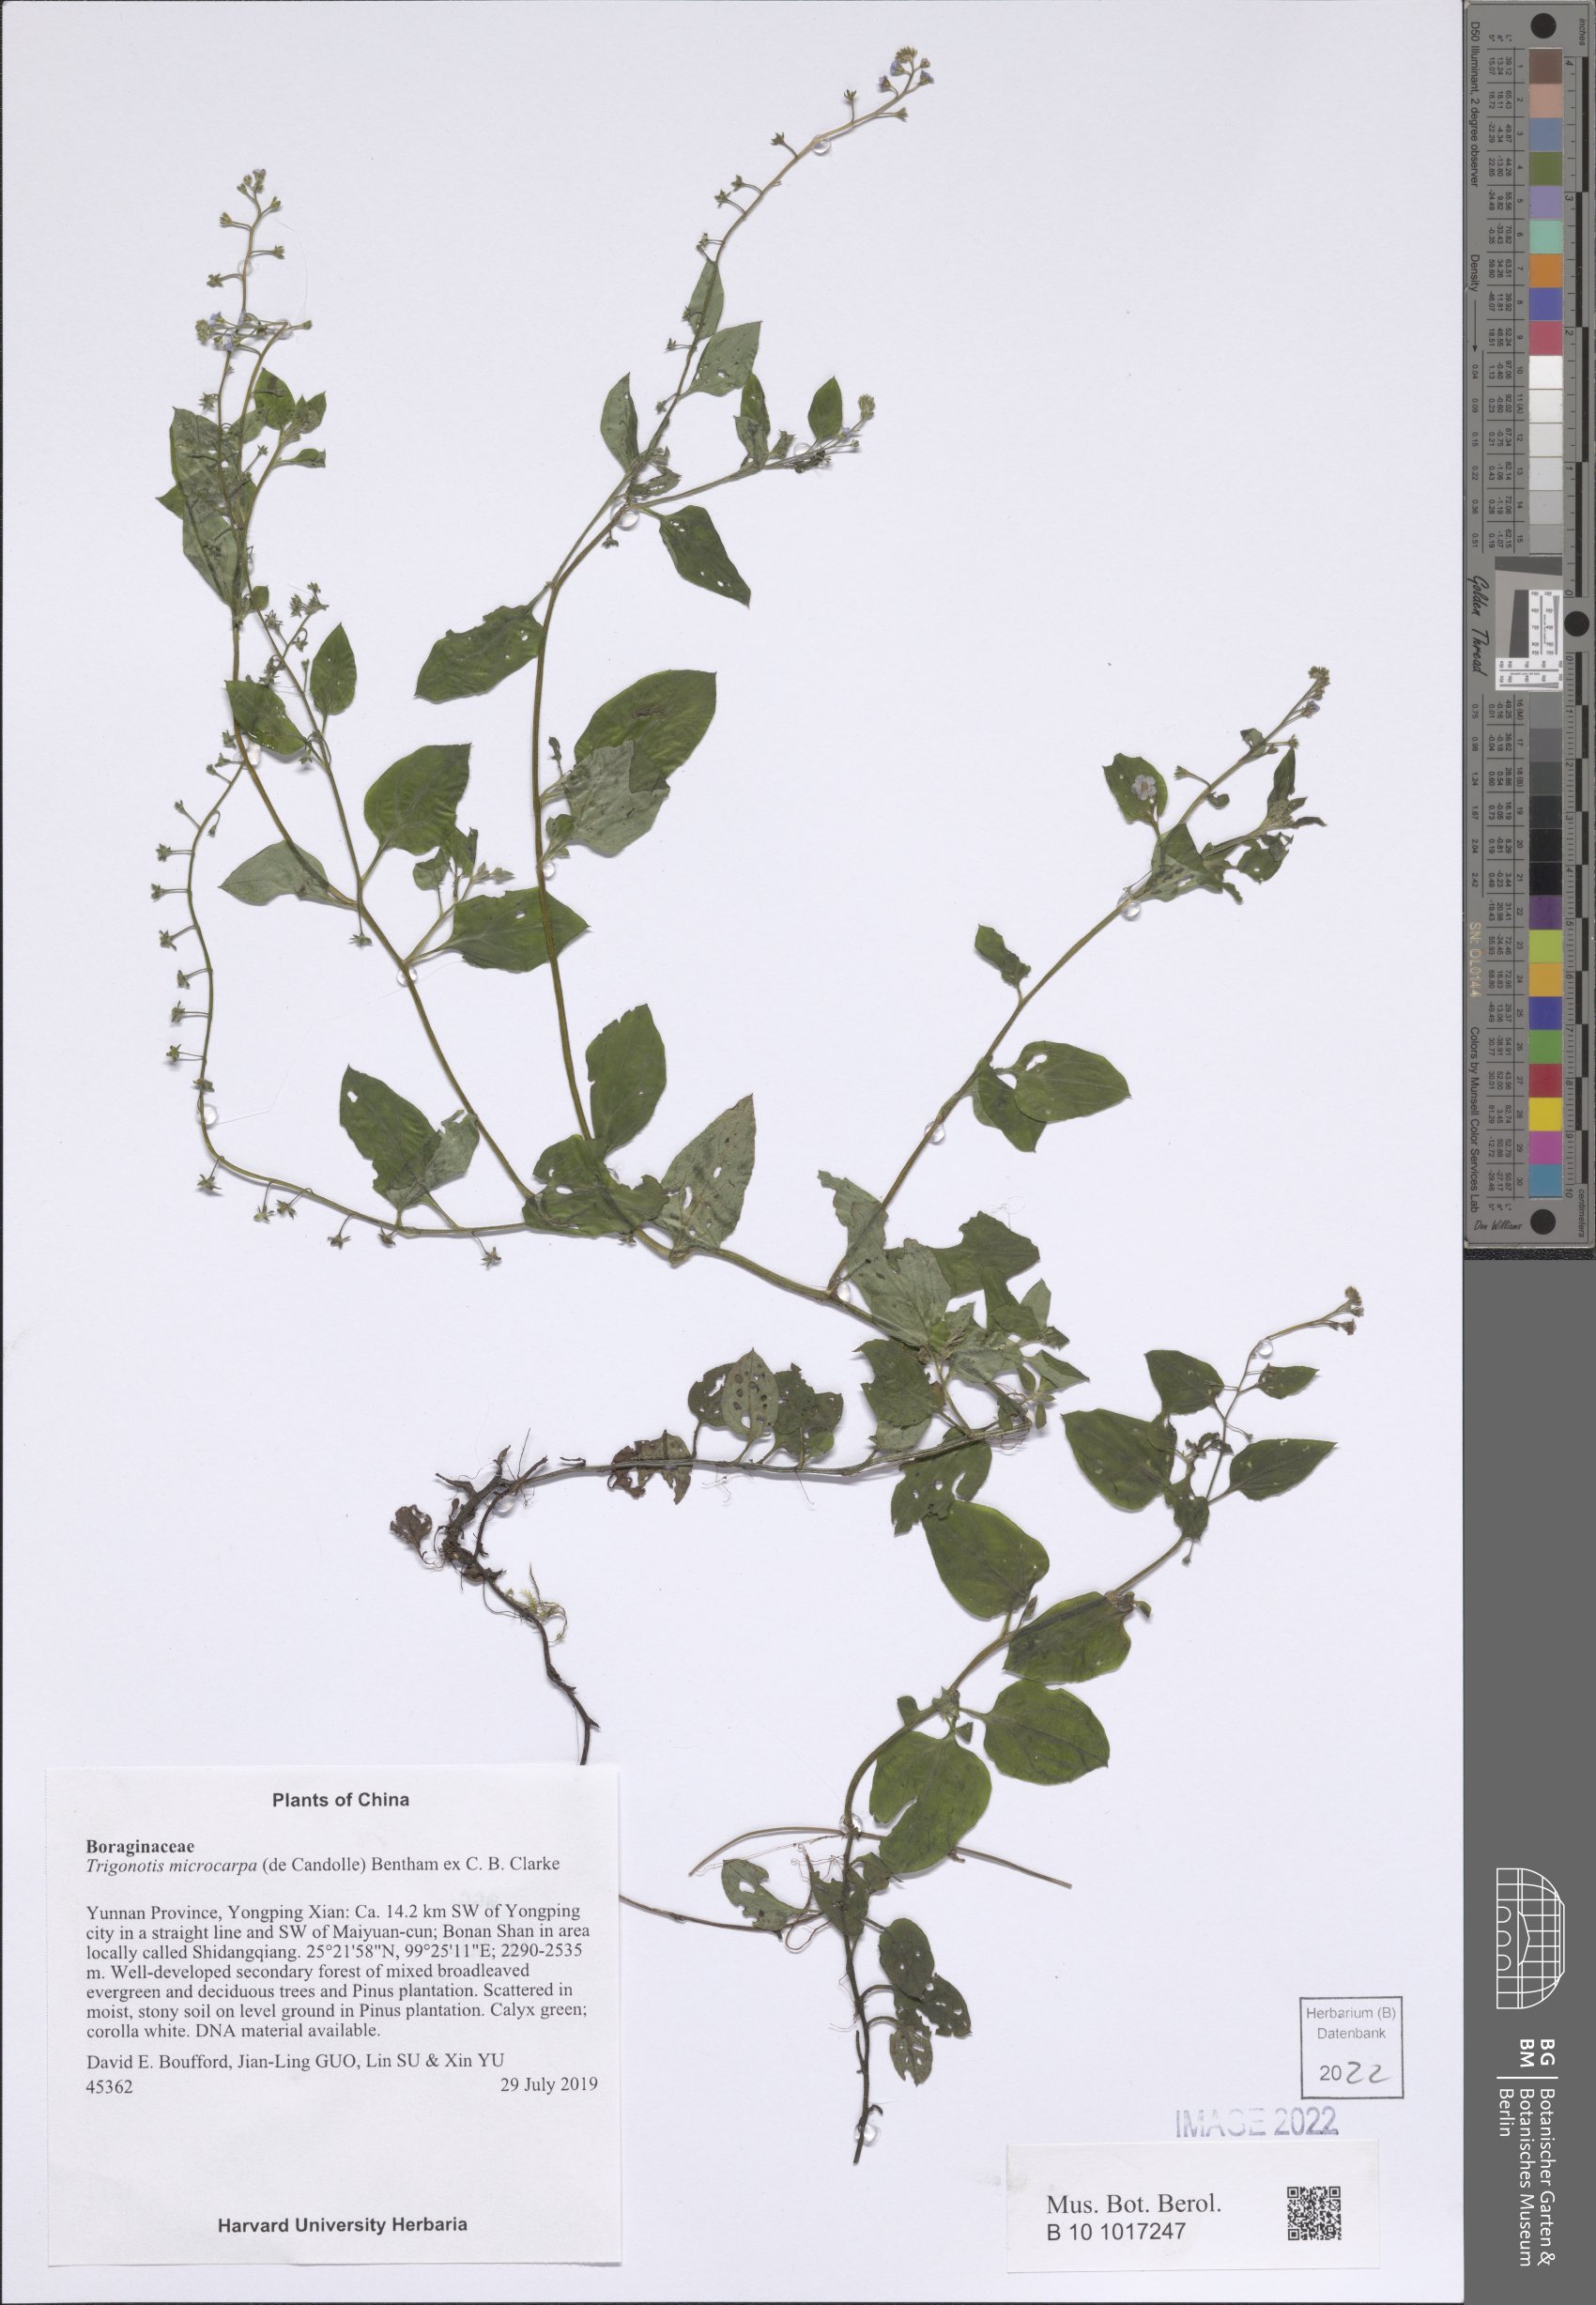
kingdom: Plantae
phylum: Tracheophyta
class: Magnoliopsida
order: Boraginales
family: Boraginaceae
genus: Trigonotis
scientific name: Trigonotis microcarpa
